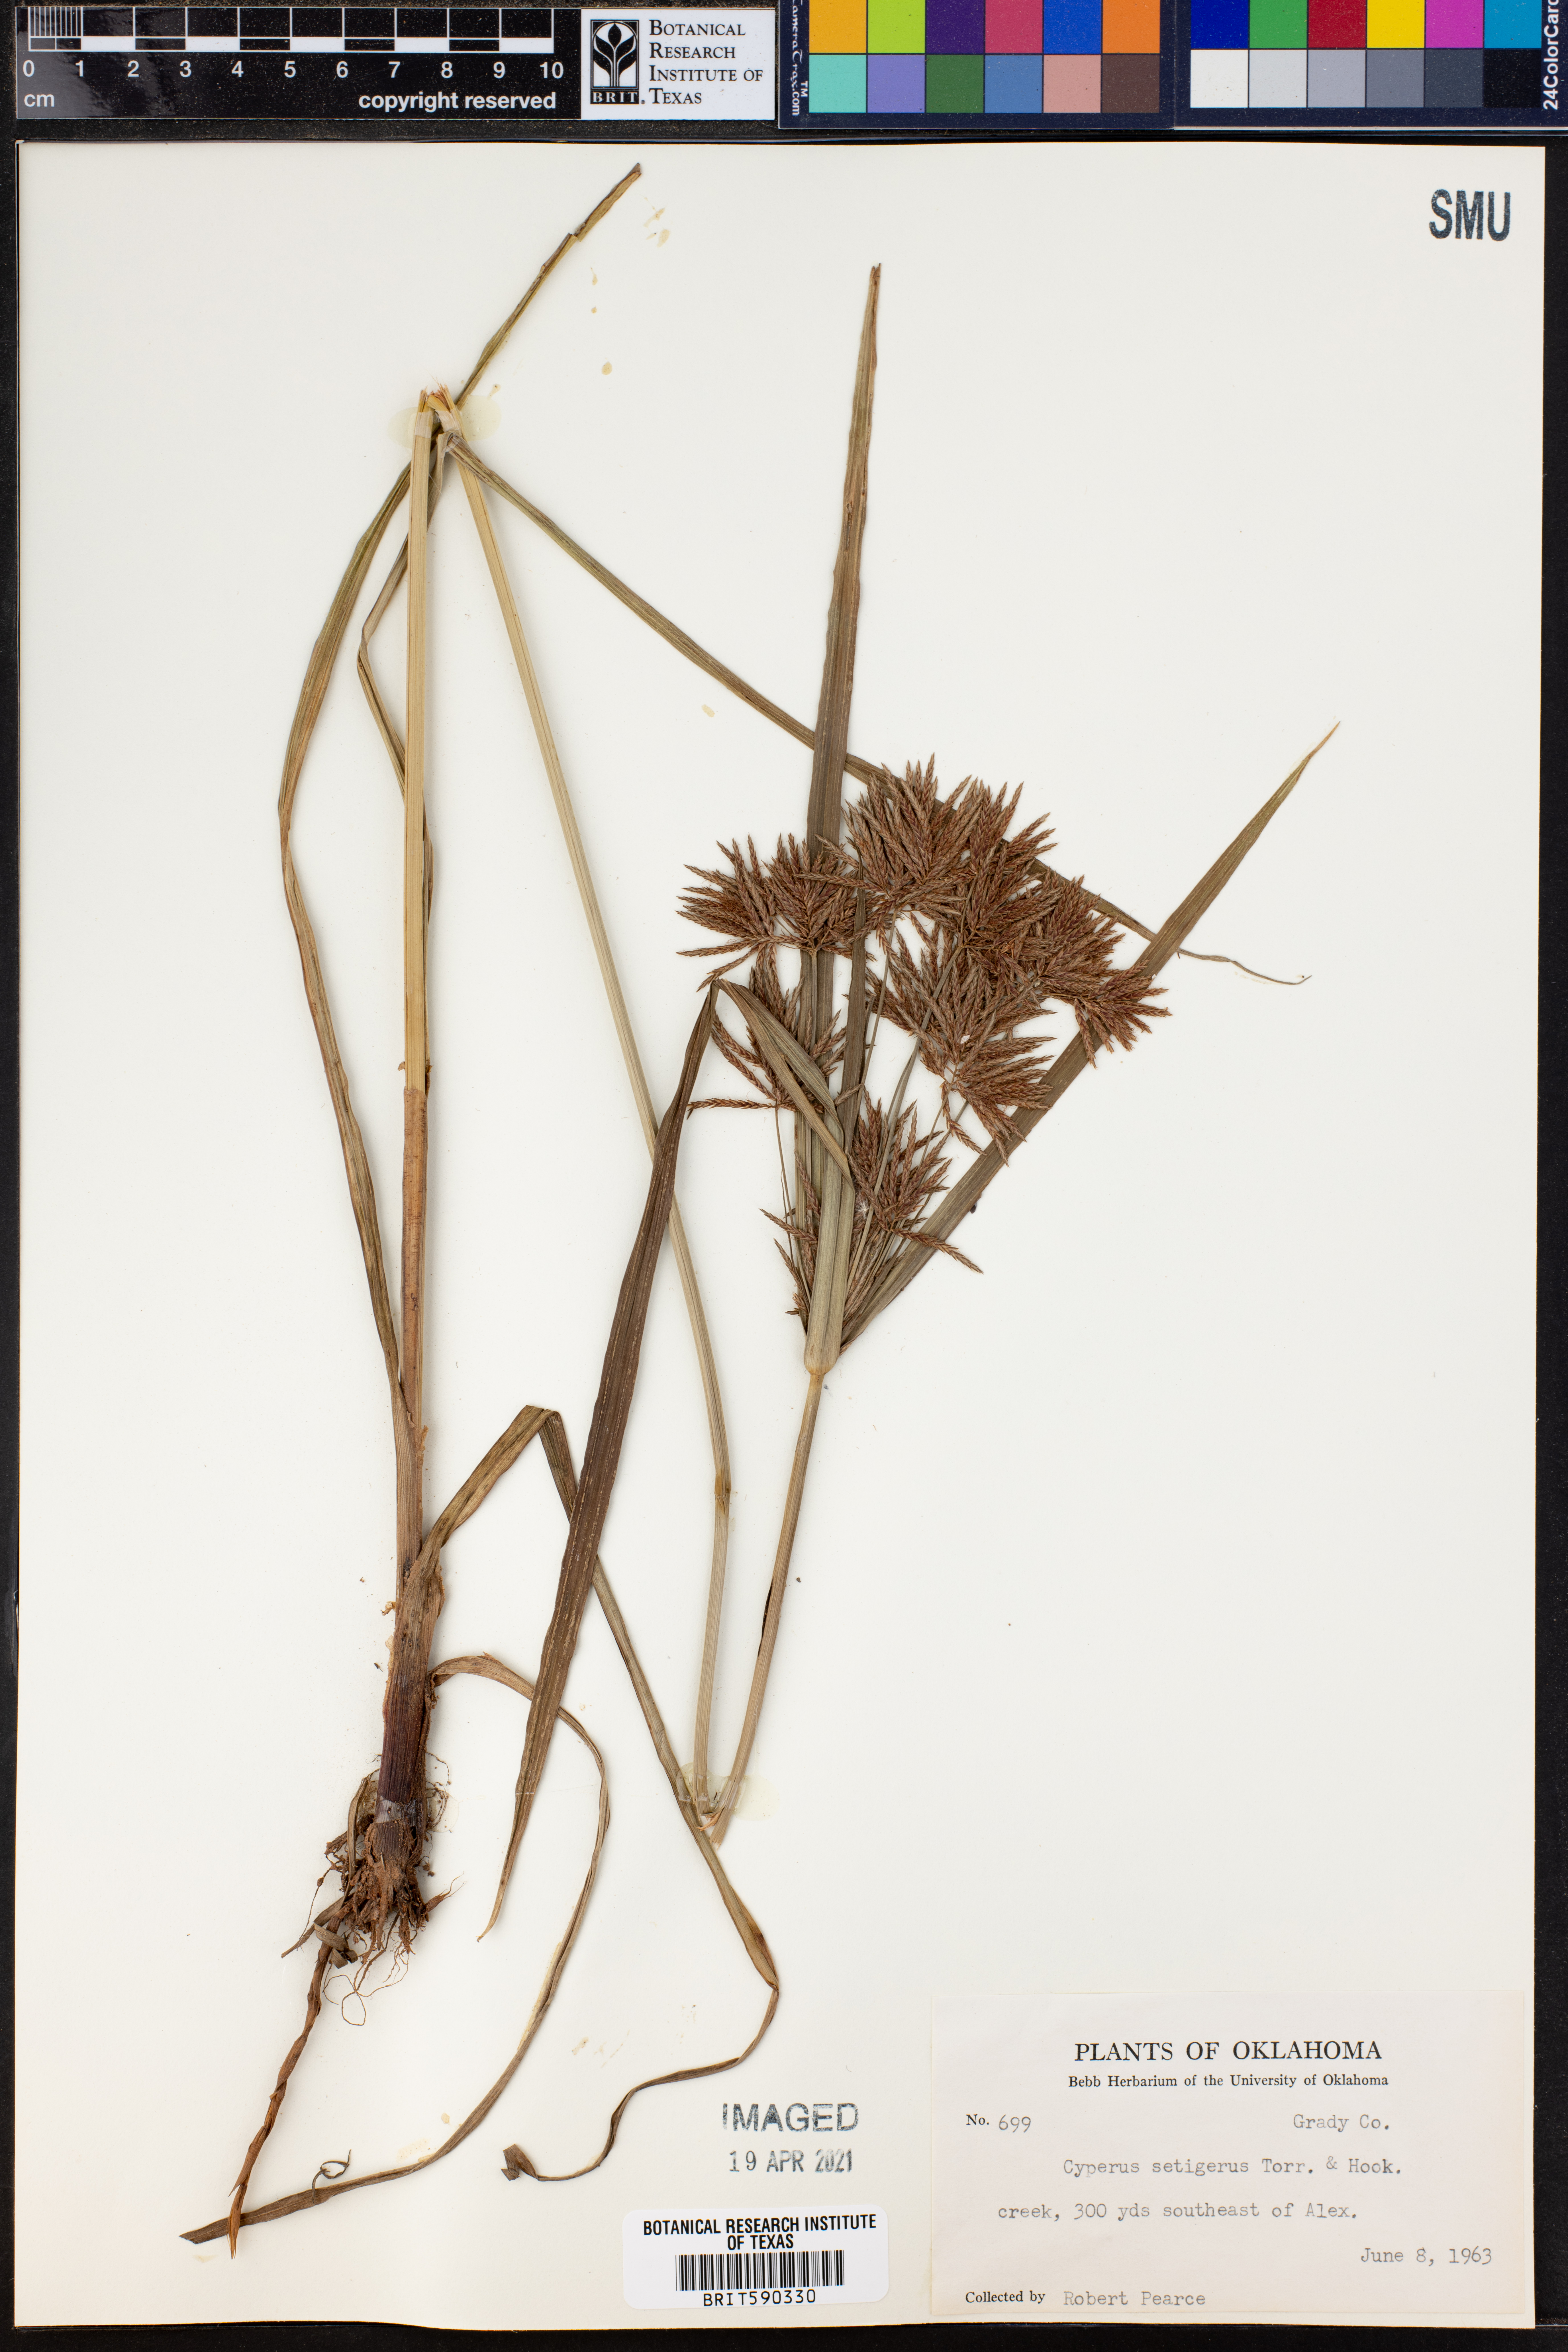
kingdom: Plantae
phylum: Tracheophyta
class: Liliopsida
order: Poales
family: Cyperaceae
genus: Cyperus
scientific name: Cyperus setigerus
